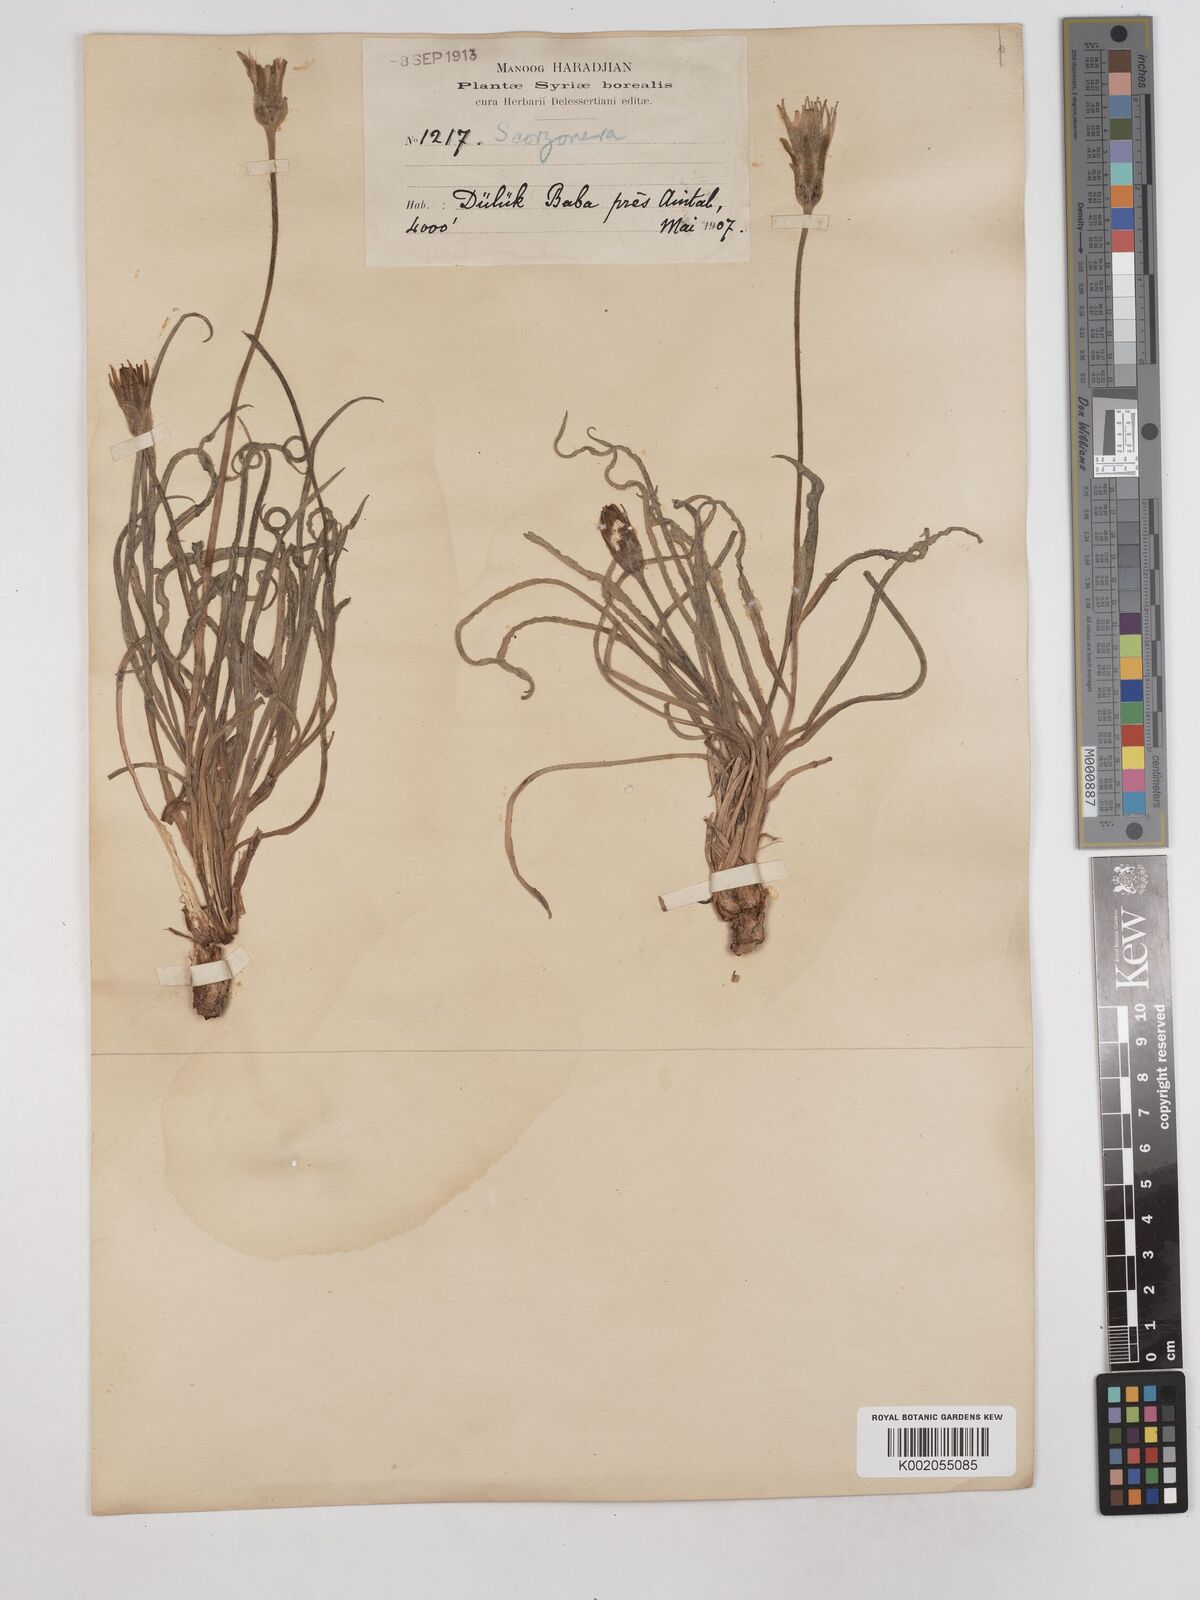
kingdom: Plantae
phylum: Tracheophyta
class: Magnoliopsida
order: Asterales
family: Asteraceae
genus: Candollea
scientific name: Candollea mollis
